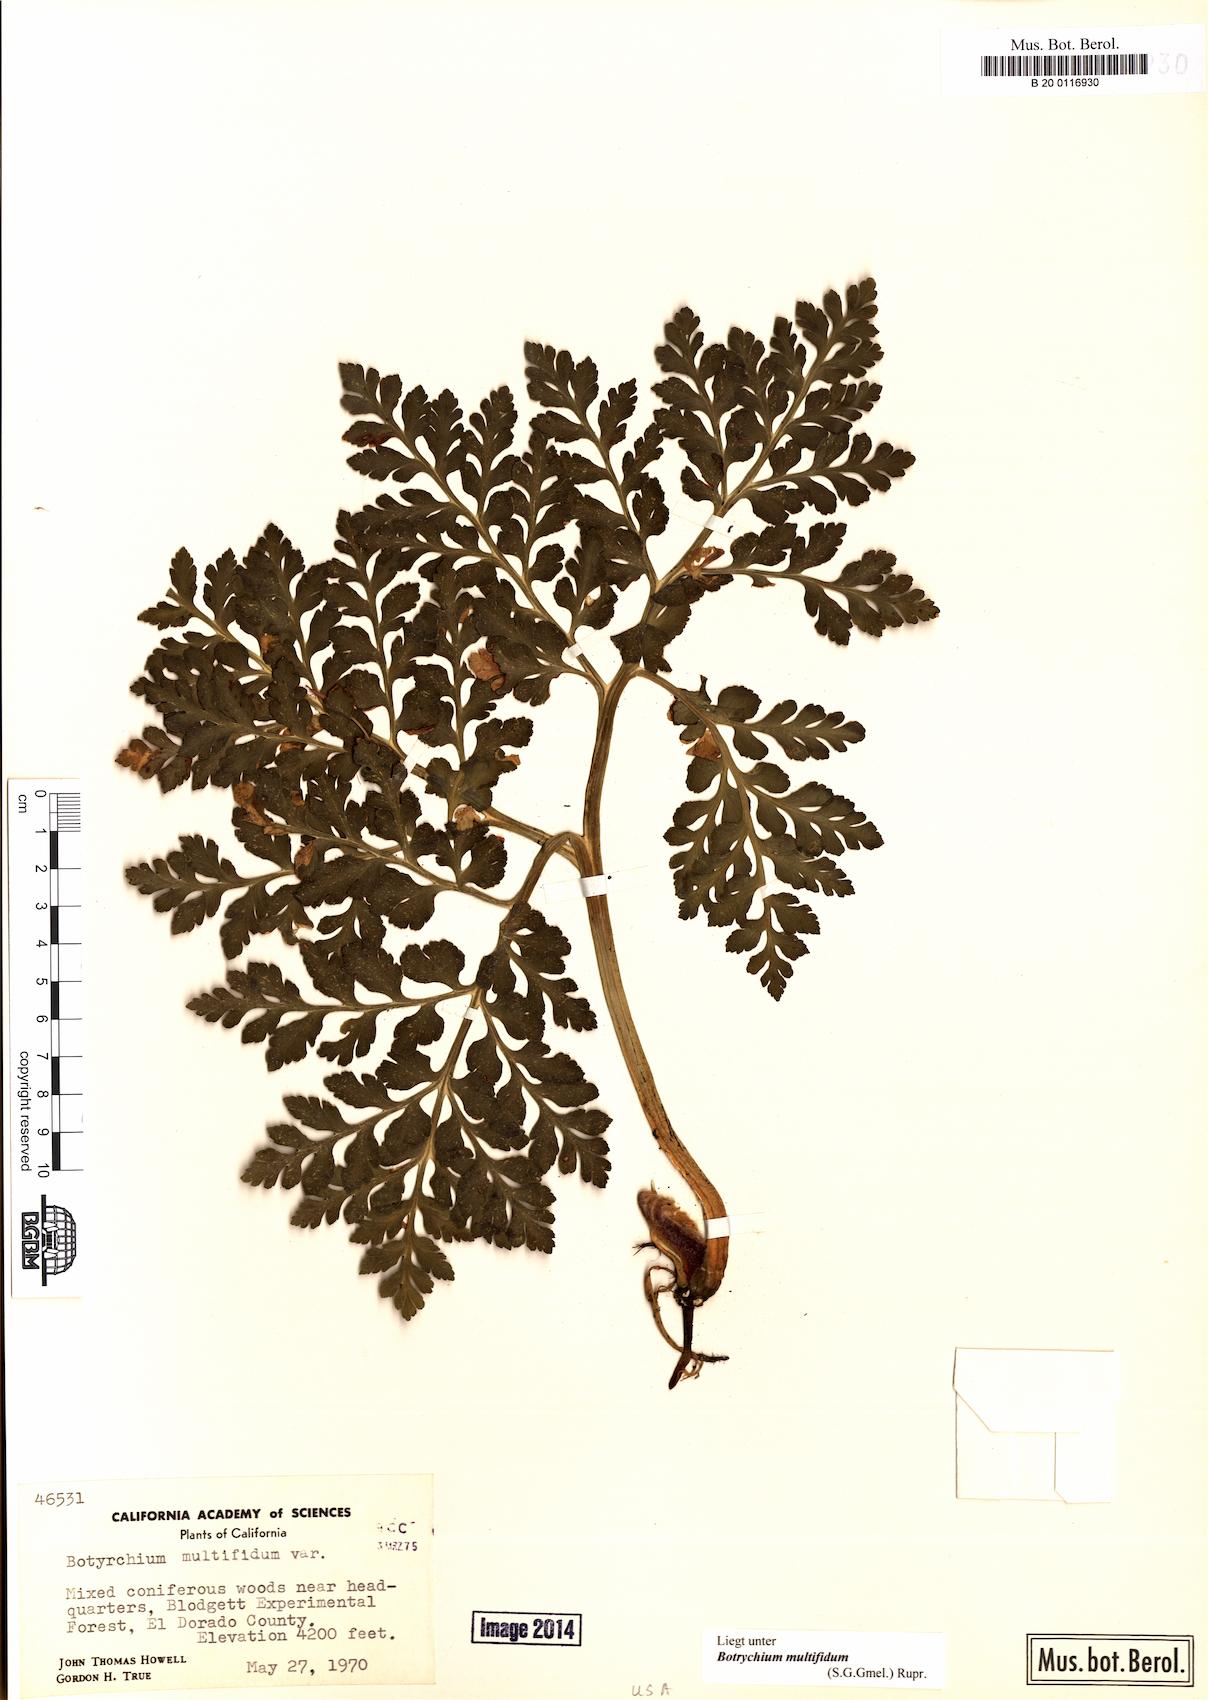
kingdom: Plantae
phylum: Tracheophyta
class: Polypodiopsida
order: Ophioglossales
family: Ophioglossaceae
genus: Sceptridium
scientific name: Sceptridium multifidum
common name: Leathery grape fern
